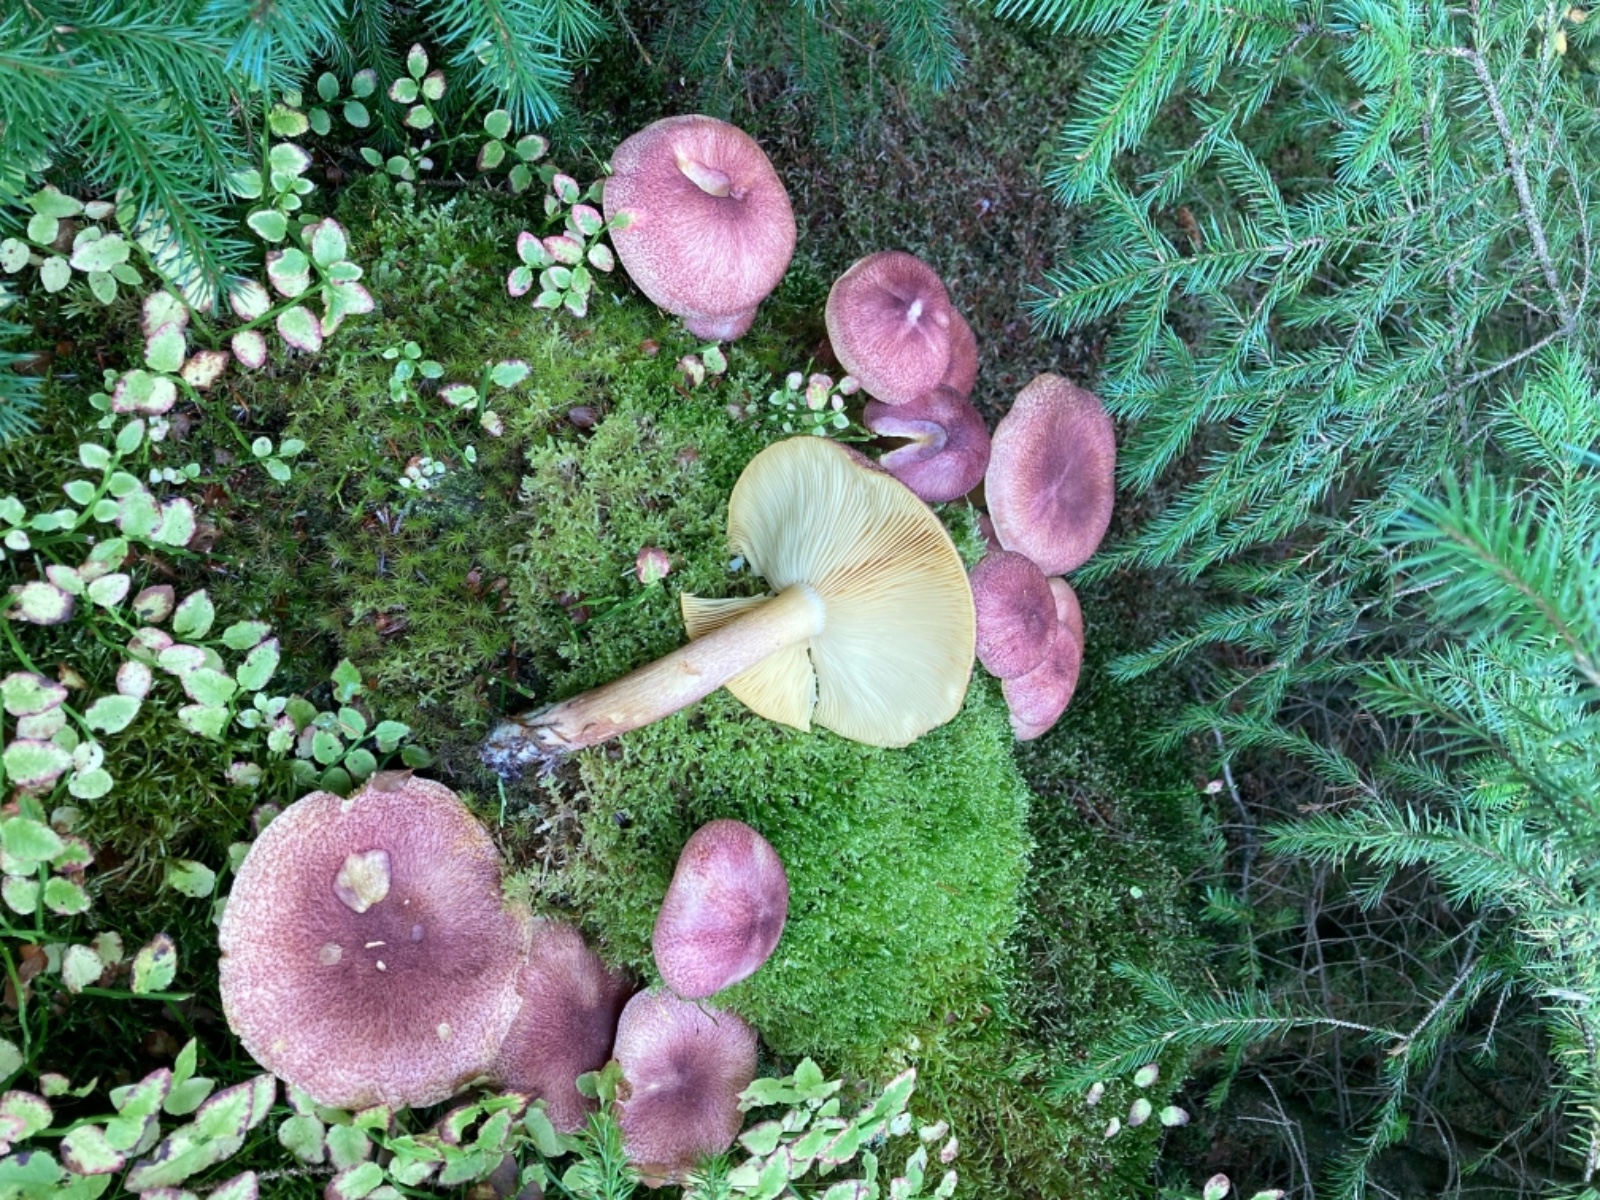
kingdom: Fungi
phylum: Basidiomycota
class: Agaricomycetes
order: Agaricales
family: Tricholomataceae
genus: Tricholomopsis
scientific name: Tricholomopsis rutilans
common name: purpur-væbnerhat
